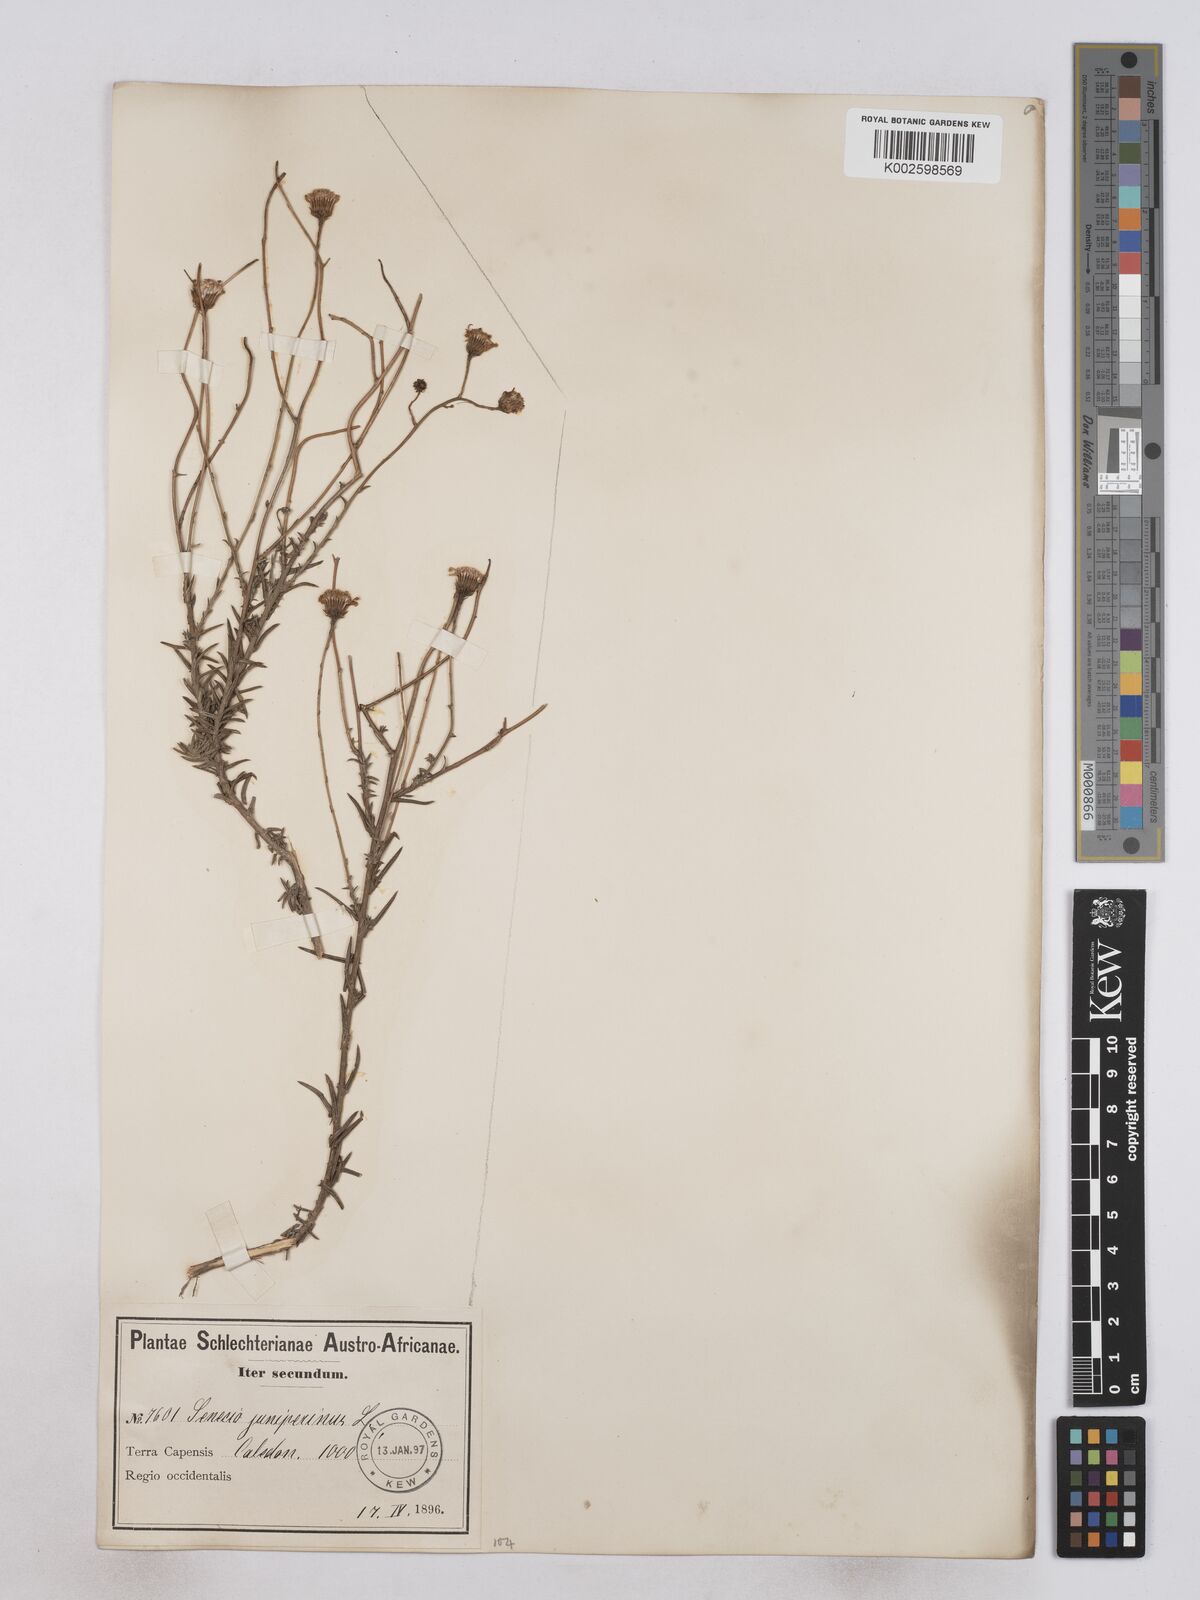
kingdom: Plantae
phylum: Tracheophyta
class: Magnoliopsida
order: Asterales
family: Asteraceae
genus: Senecio
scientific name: Senecio juniperinus
